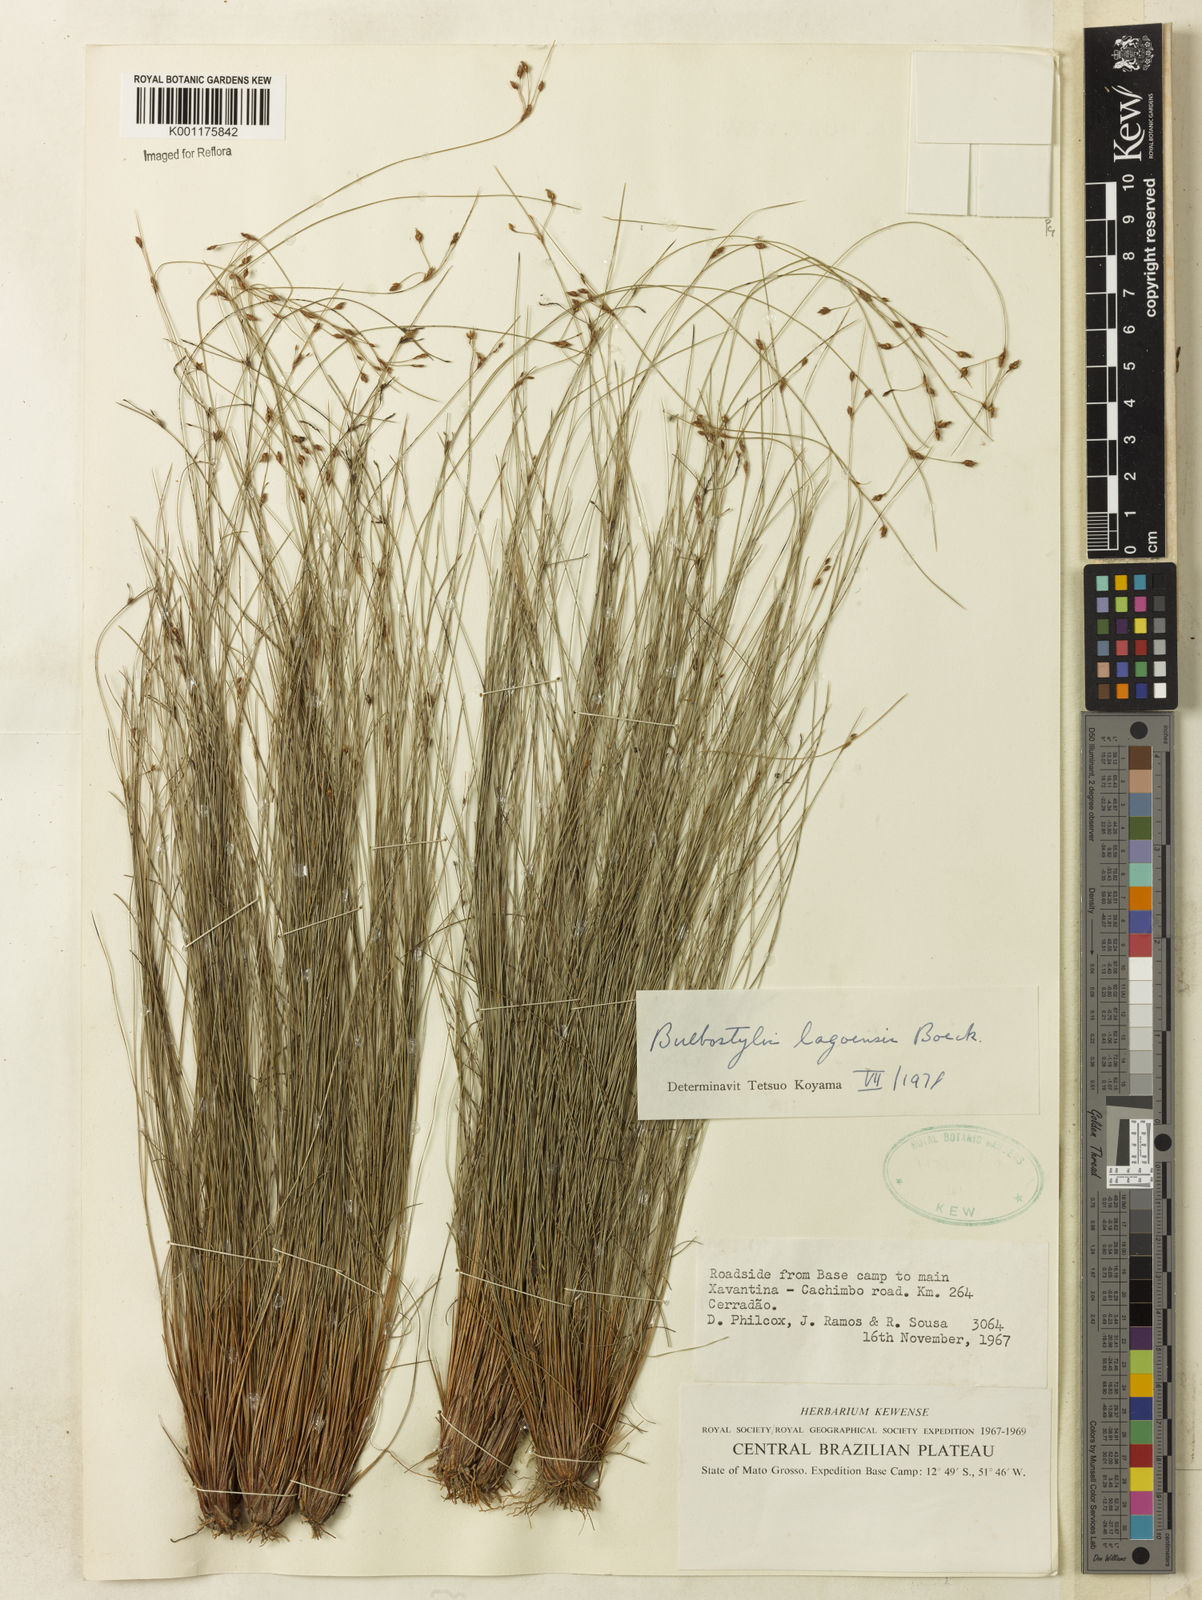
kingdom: Plantae
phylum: Tracheophyta
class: Liliopsida
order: Poales
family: Cyperaceae
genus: Bulbostylis
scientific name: Bulbostylis lagoensis
